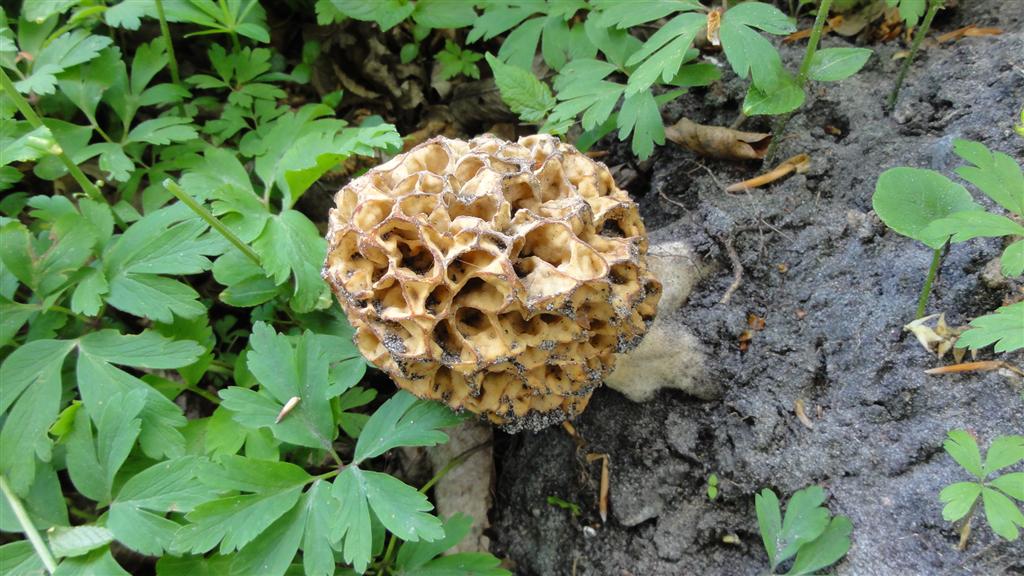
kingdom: Fungi
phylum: Ascomycota
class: Pezizomycetes
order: Pezizales
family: Morchellaceae
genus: Morchella
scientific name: Morchella esculenta
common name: spiselig morkel
